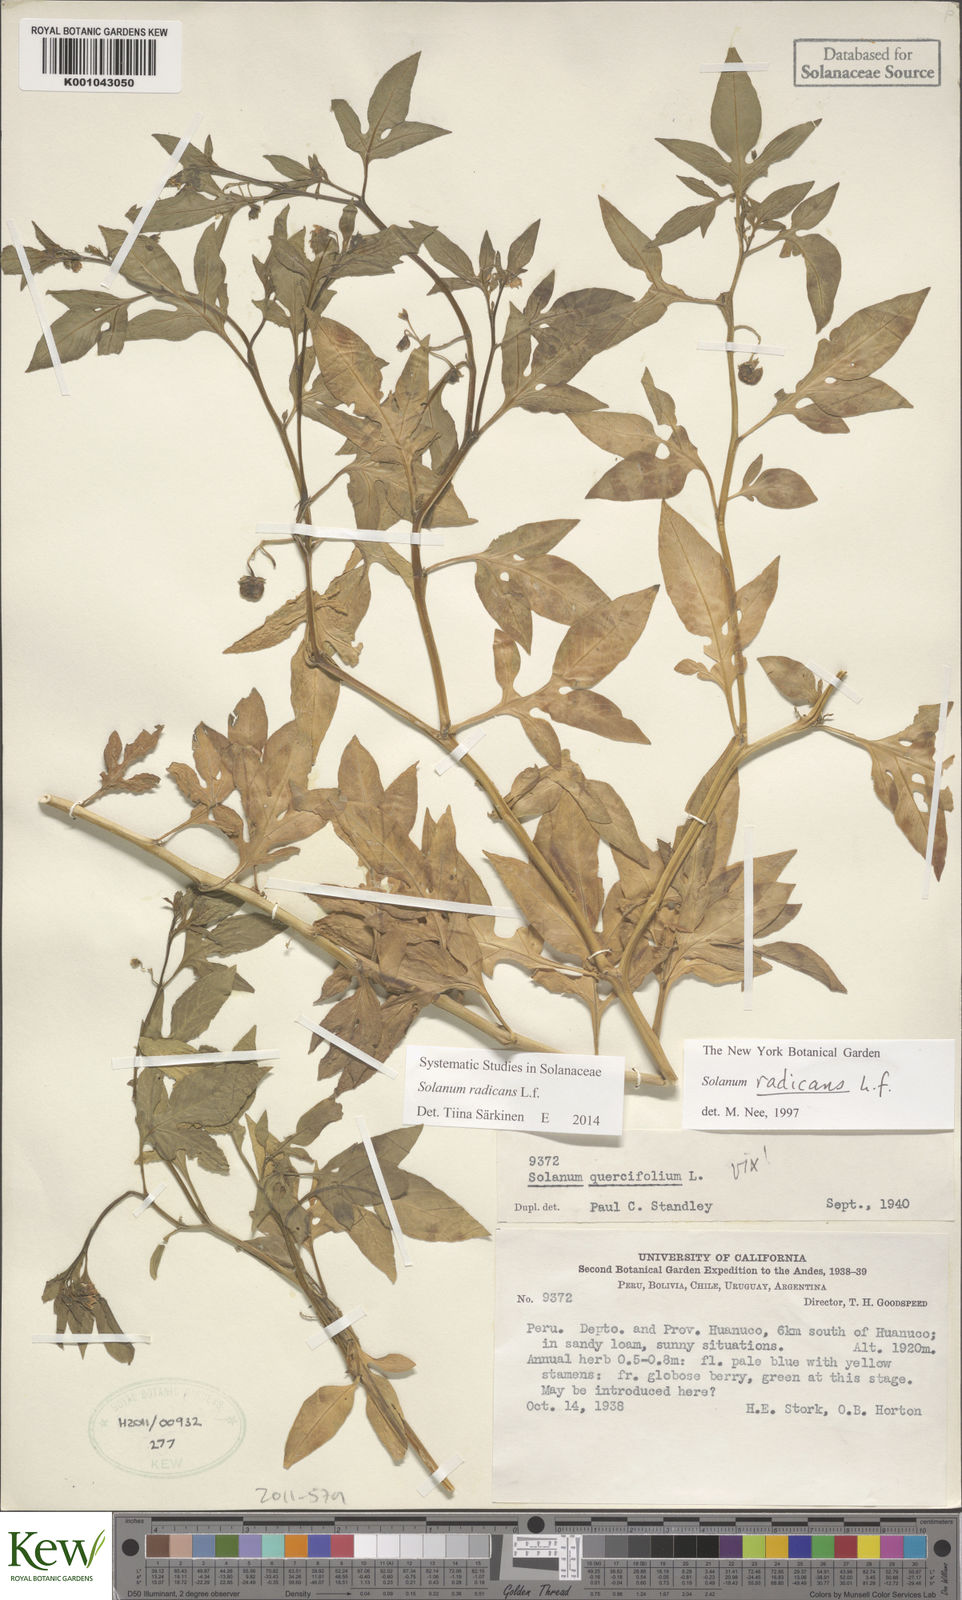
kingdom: Plantae
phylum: Tracheophyta
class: Magnoliopsida
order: Solanales
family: Solanaceae
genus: Solanum
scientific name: Solanum radicans
